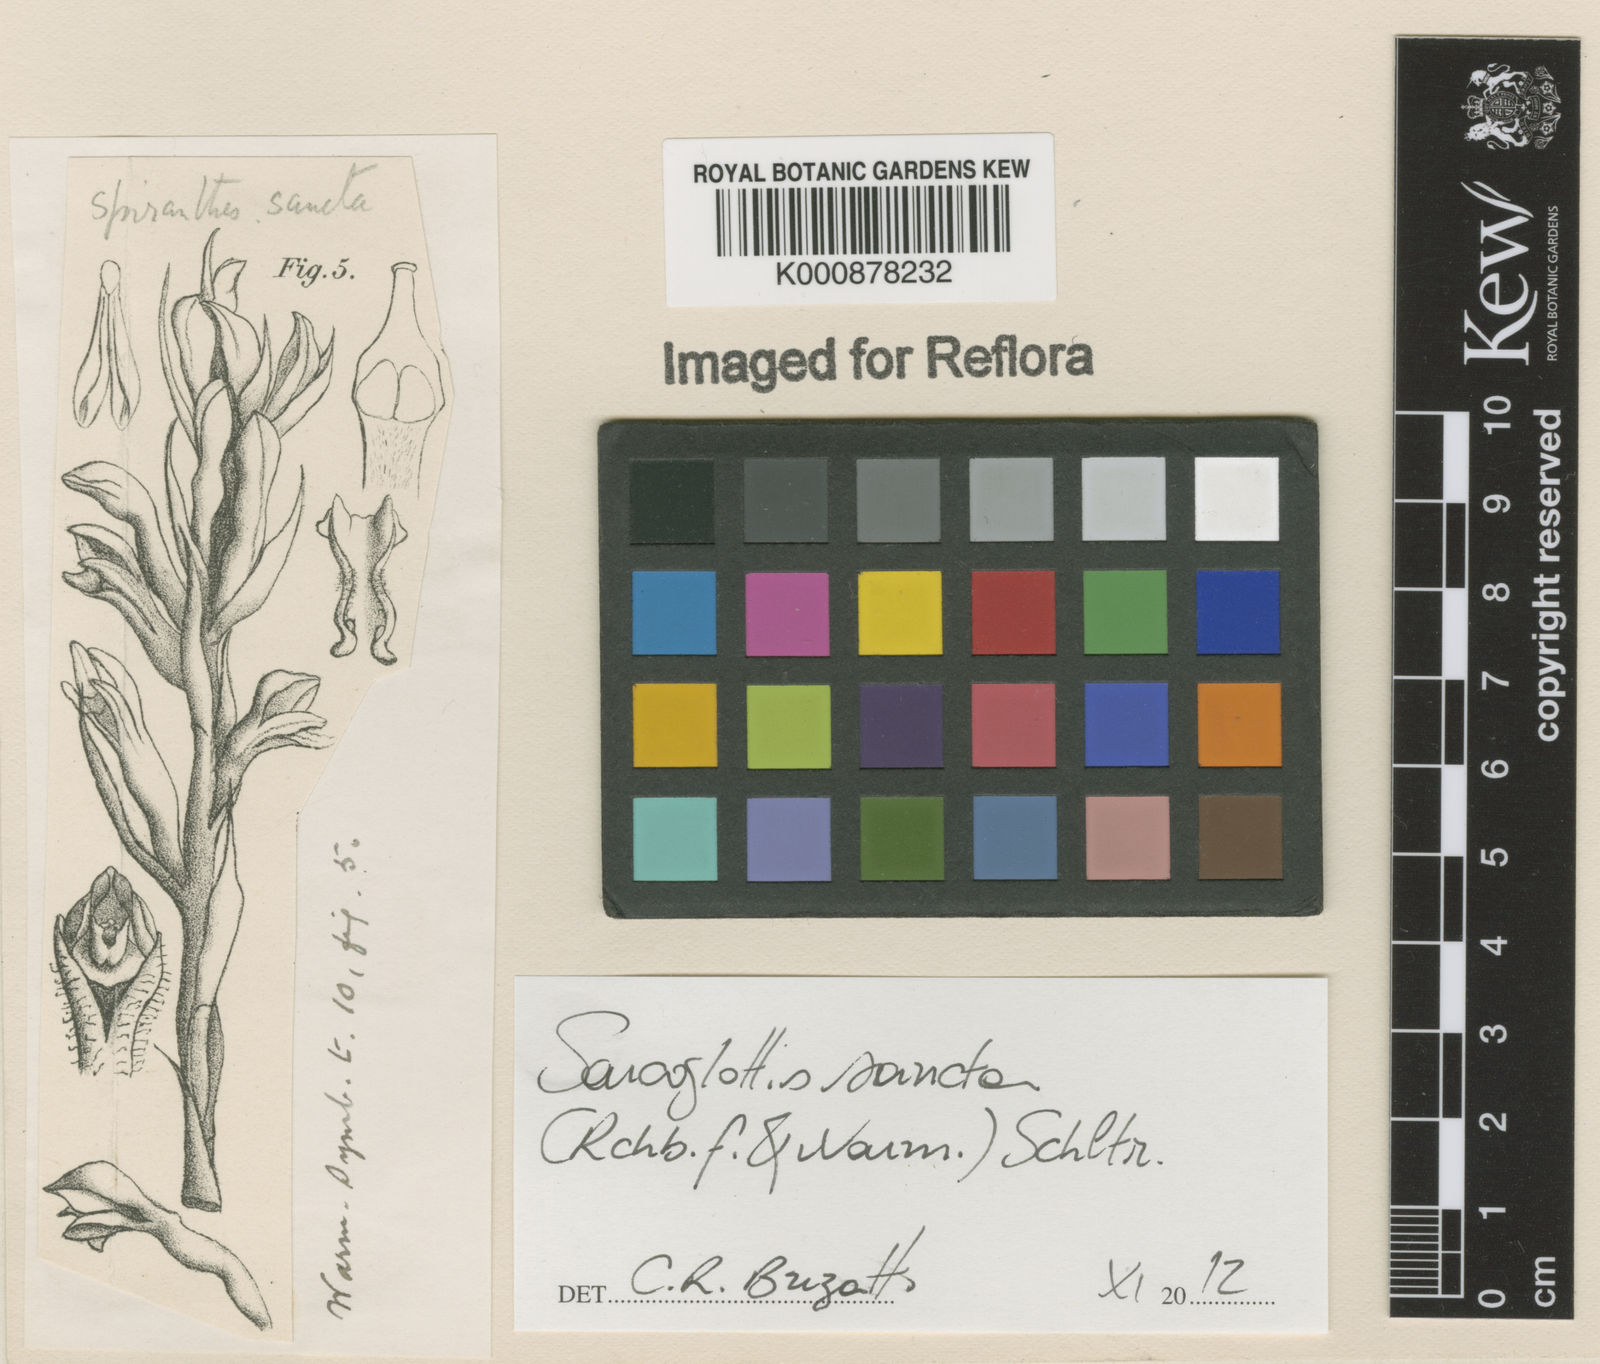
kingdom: Plantae
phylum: Tracheophyta
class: Liliopsida
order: Asparagales
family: Orchidaceae
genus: Pelexia
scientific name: Pelexia sancta
